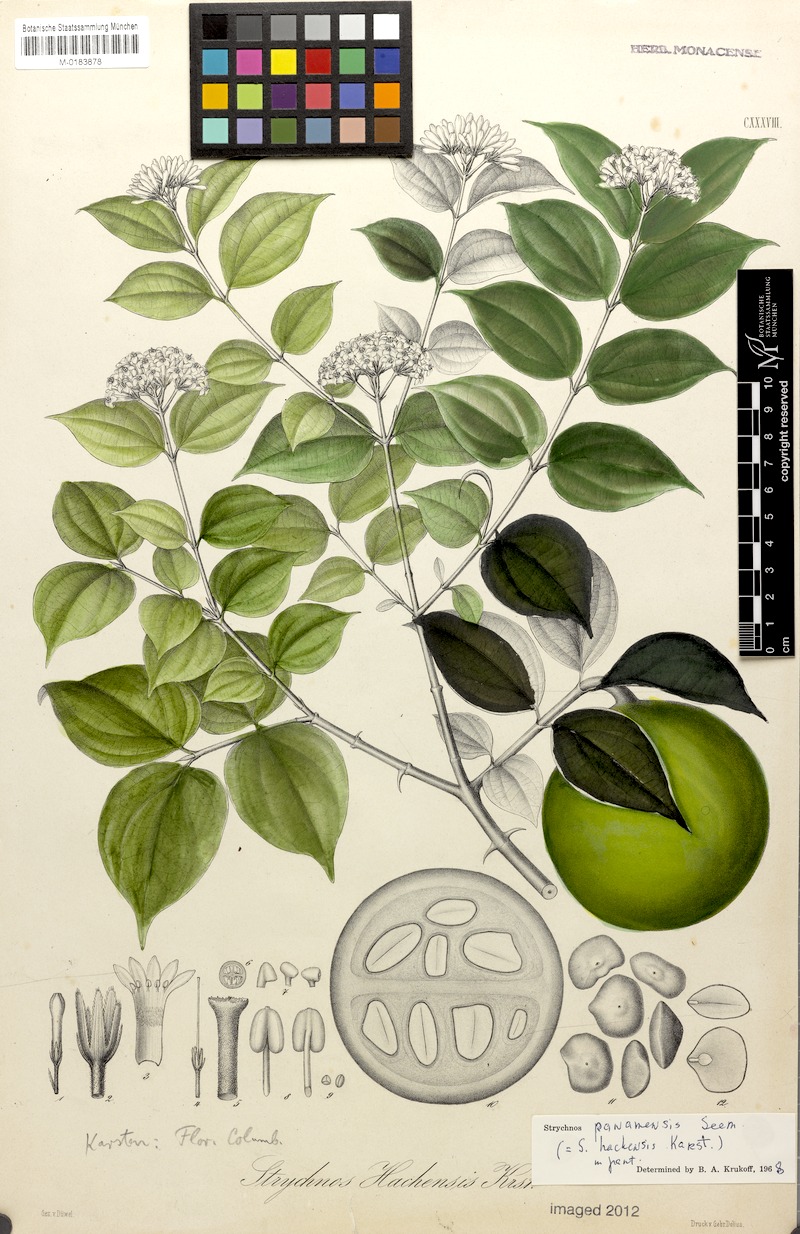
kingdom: Plantae
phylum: Tracheophyta
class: Magnoliopsida
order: Gentianales
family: Loganiaceae
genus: Strychnos
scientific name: Strychnos panamensis
